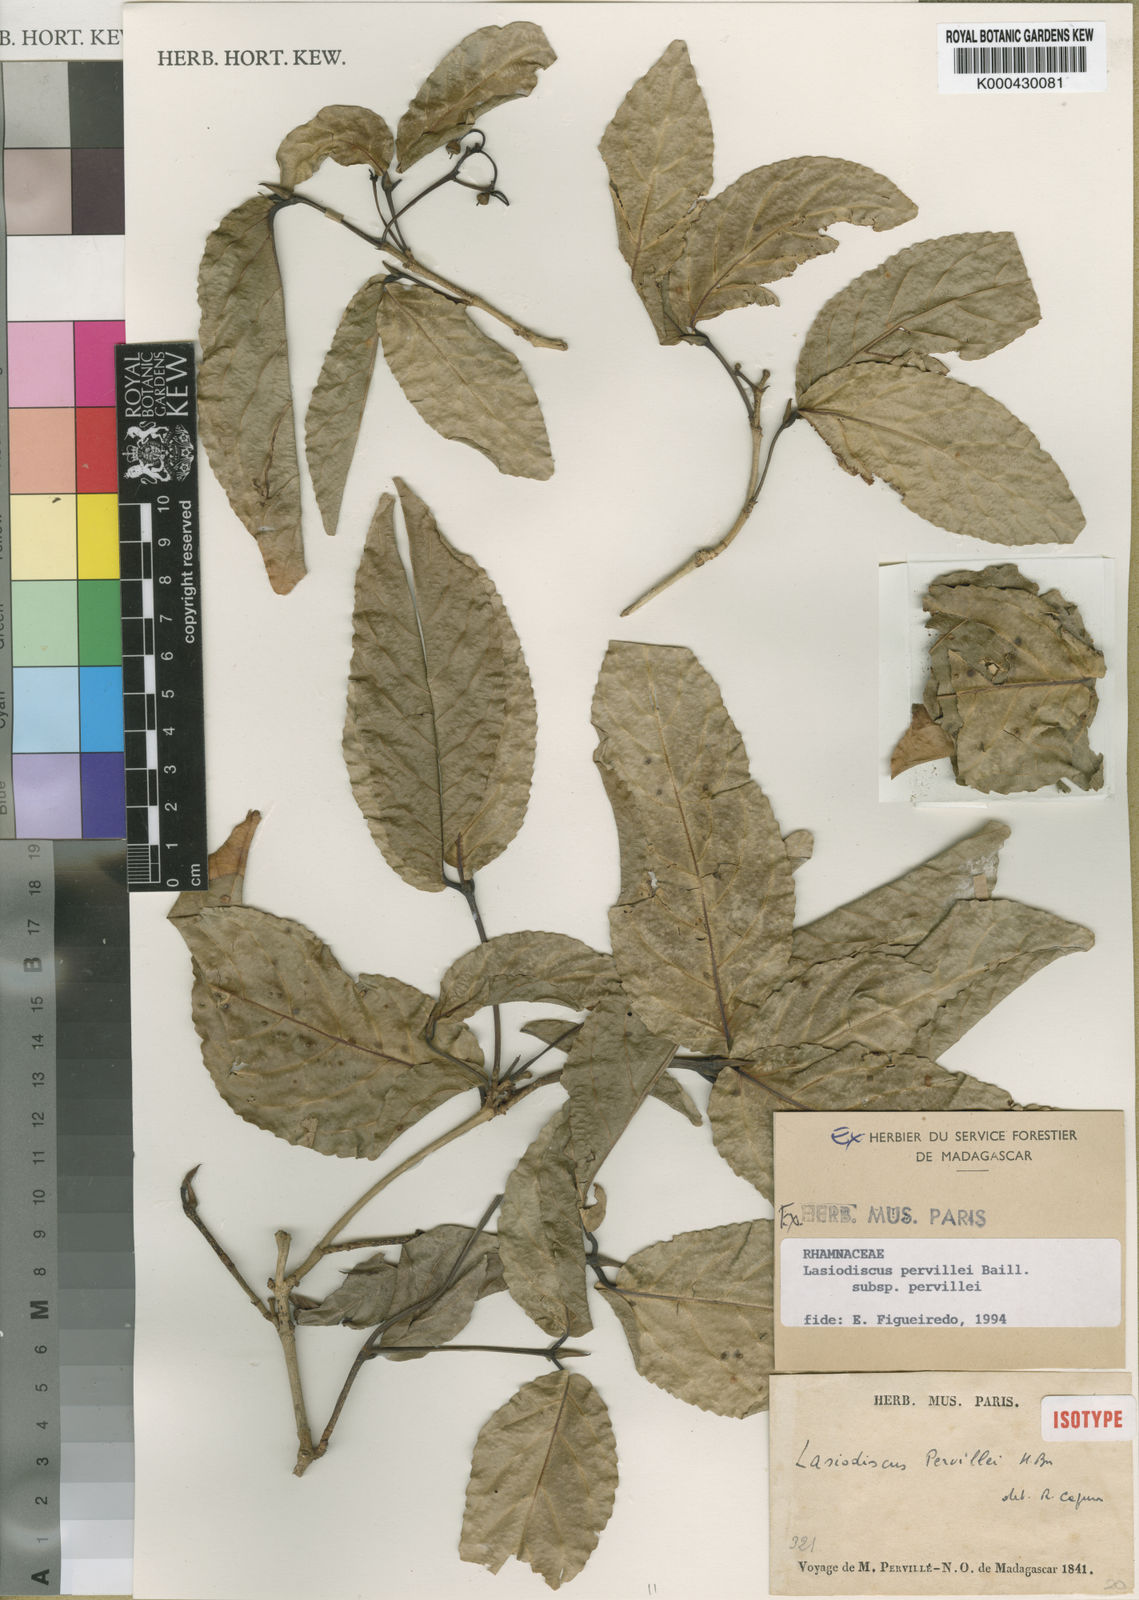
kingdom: Plantae
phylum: Tracheophyta
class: Magnoliopsida
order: Rosales
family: Rhamnaceae
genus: Lasiodiscus
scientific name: Lasiodiscus pervillei
